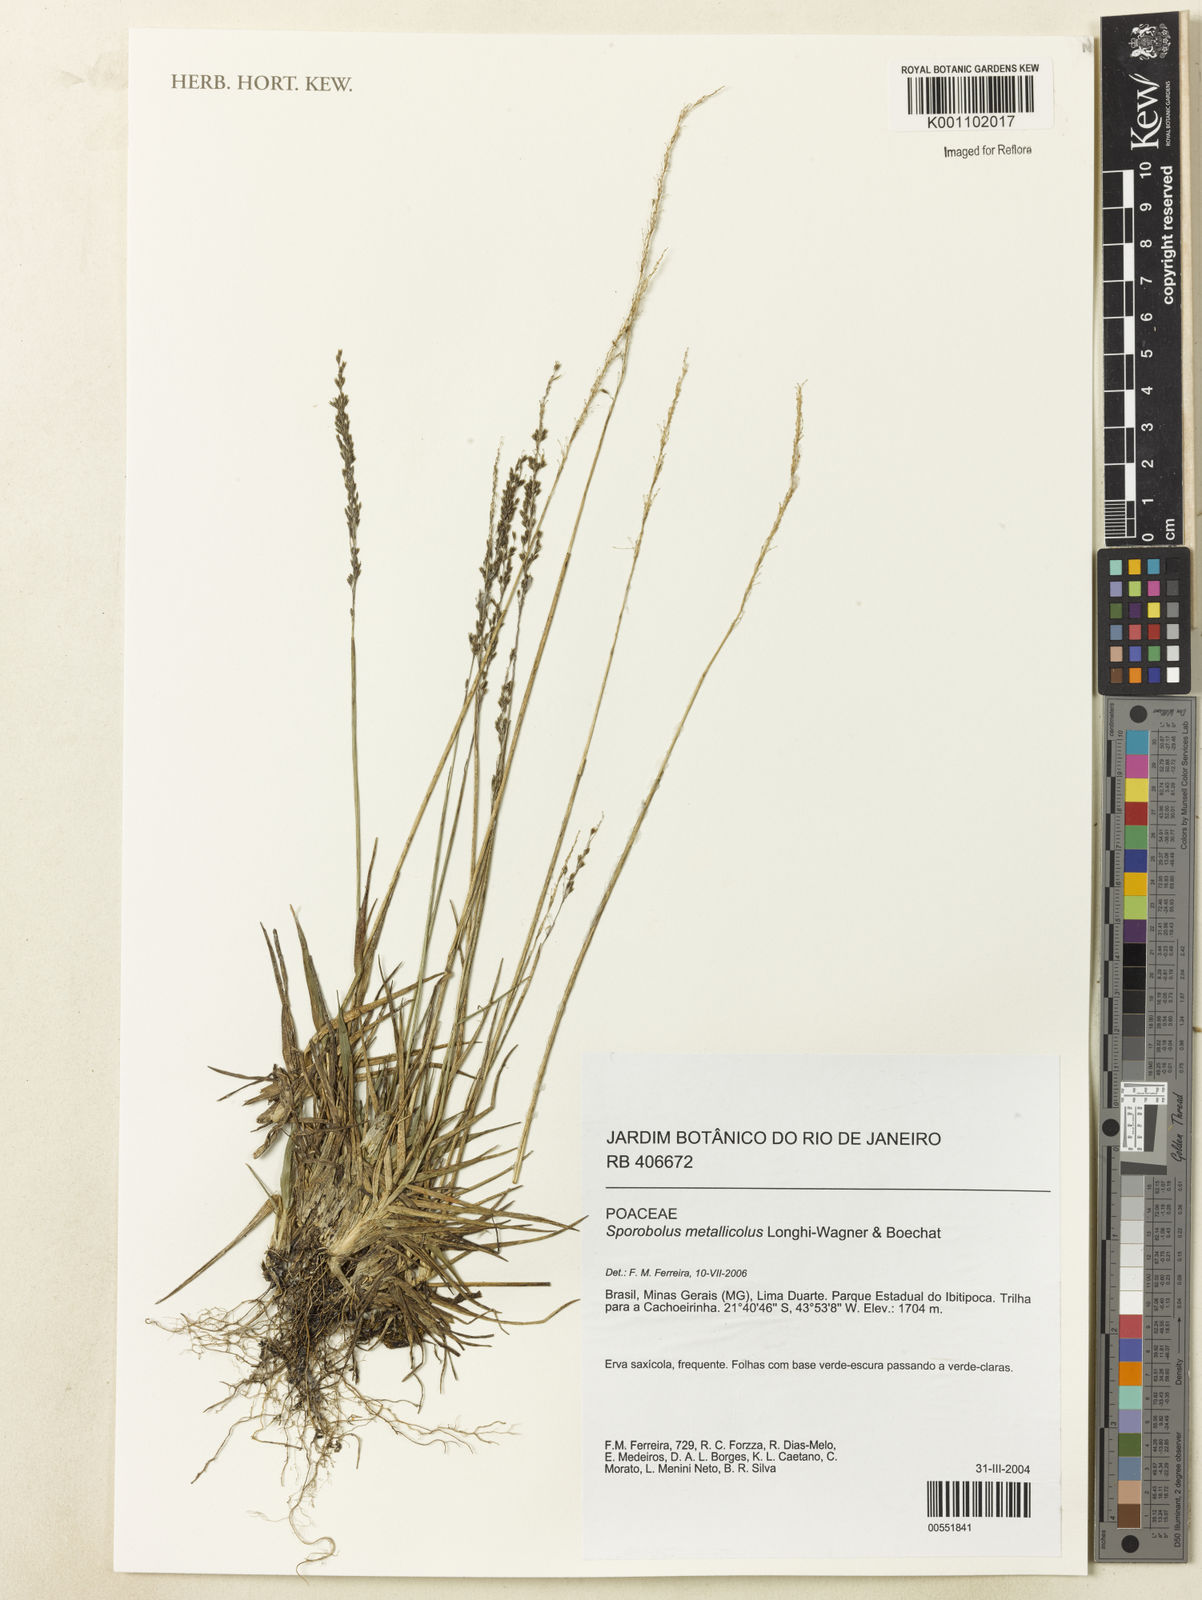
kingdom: Plantae
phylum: Tracheophyta
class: Liliopsida
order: Poales
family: Poaceae
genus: Sporobolus
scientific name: Sporobolus metallicola
